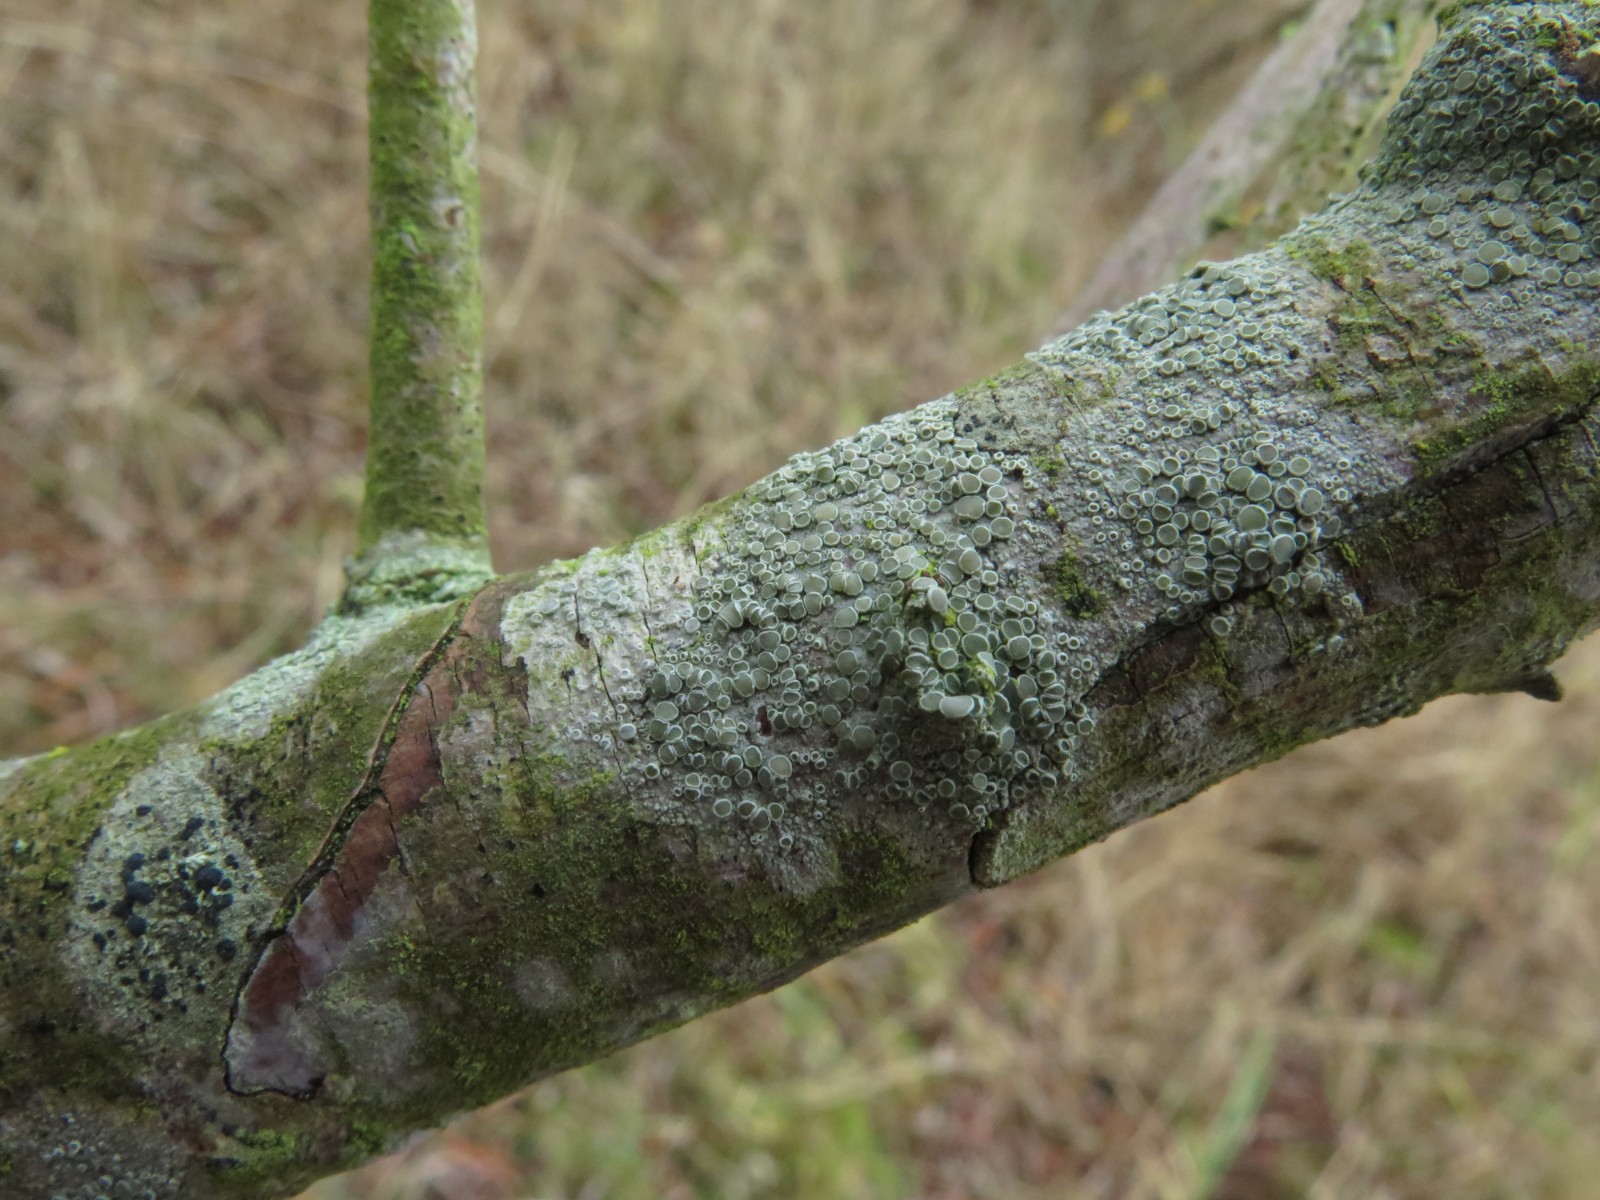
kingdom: Fungi
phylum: Ascomycota
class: Lecanoromycetes
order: Lecanorales
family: Lecanoraceae
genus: Lecanora
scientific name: Lecanora chlarotera
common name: brun kantskivelav
